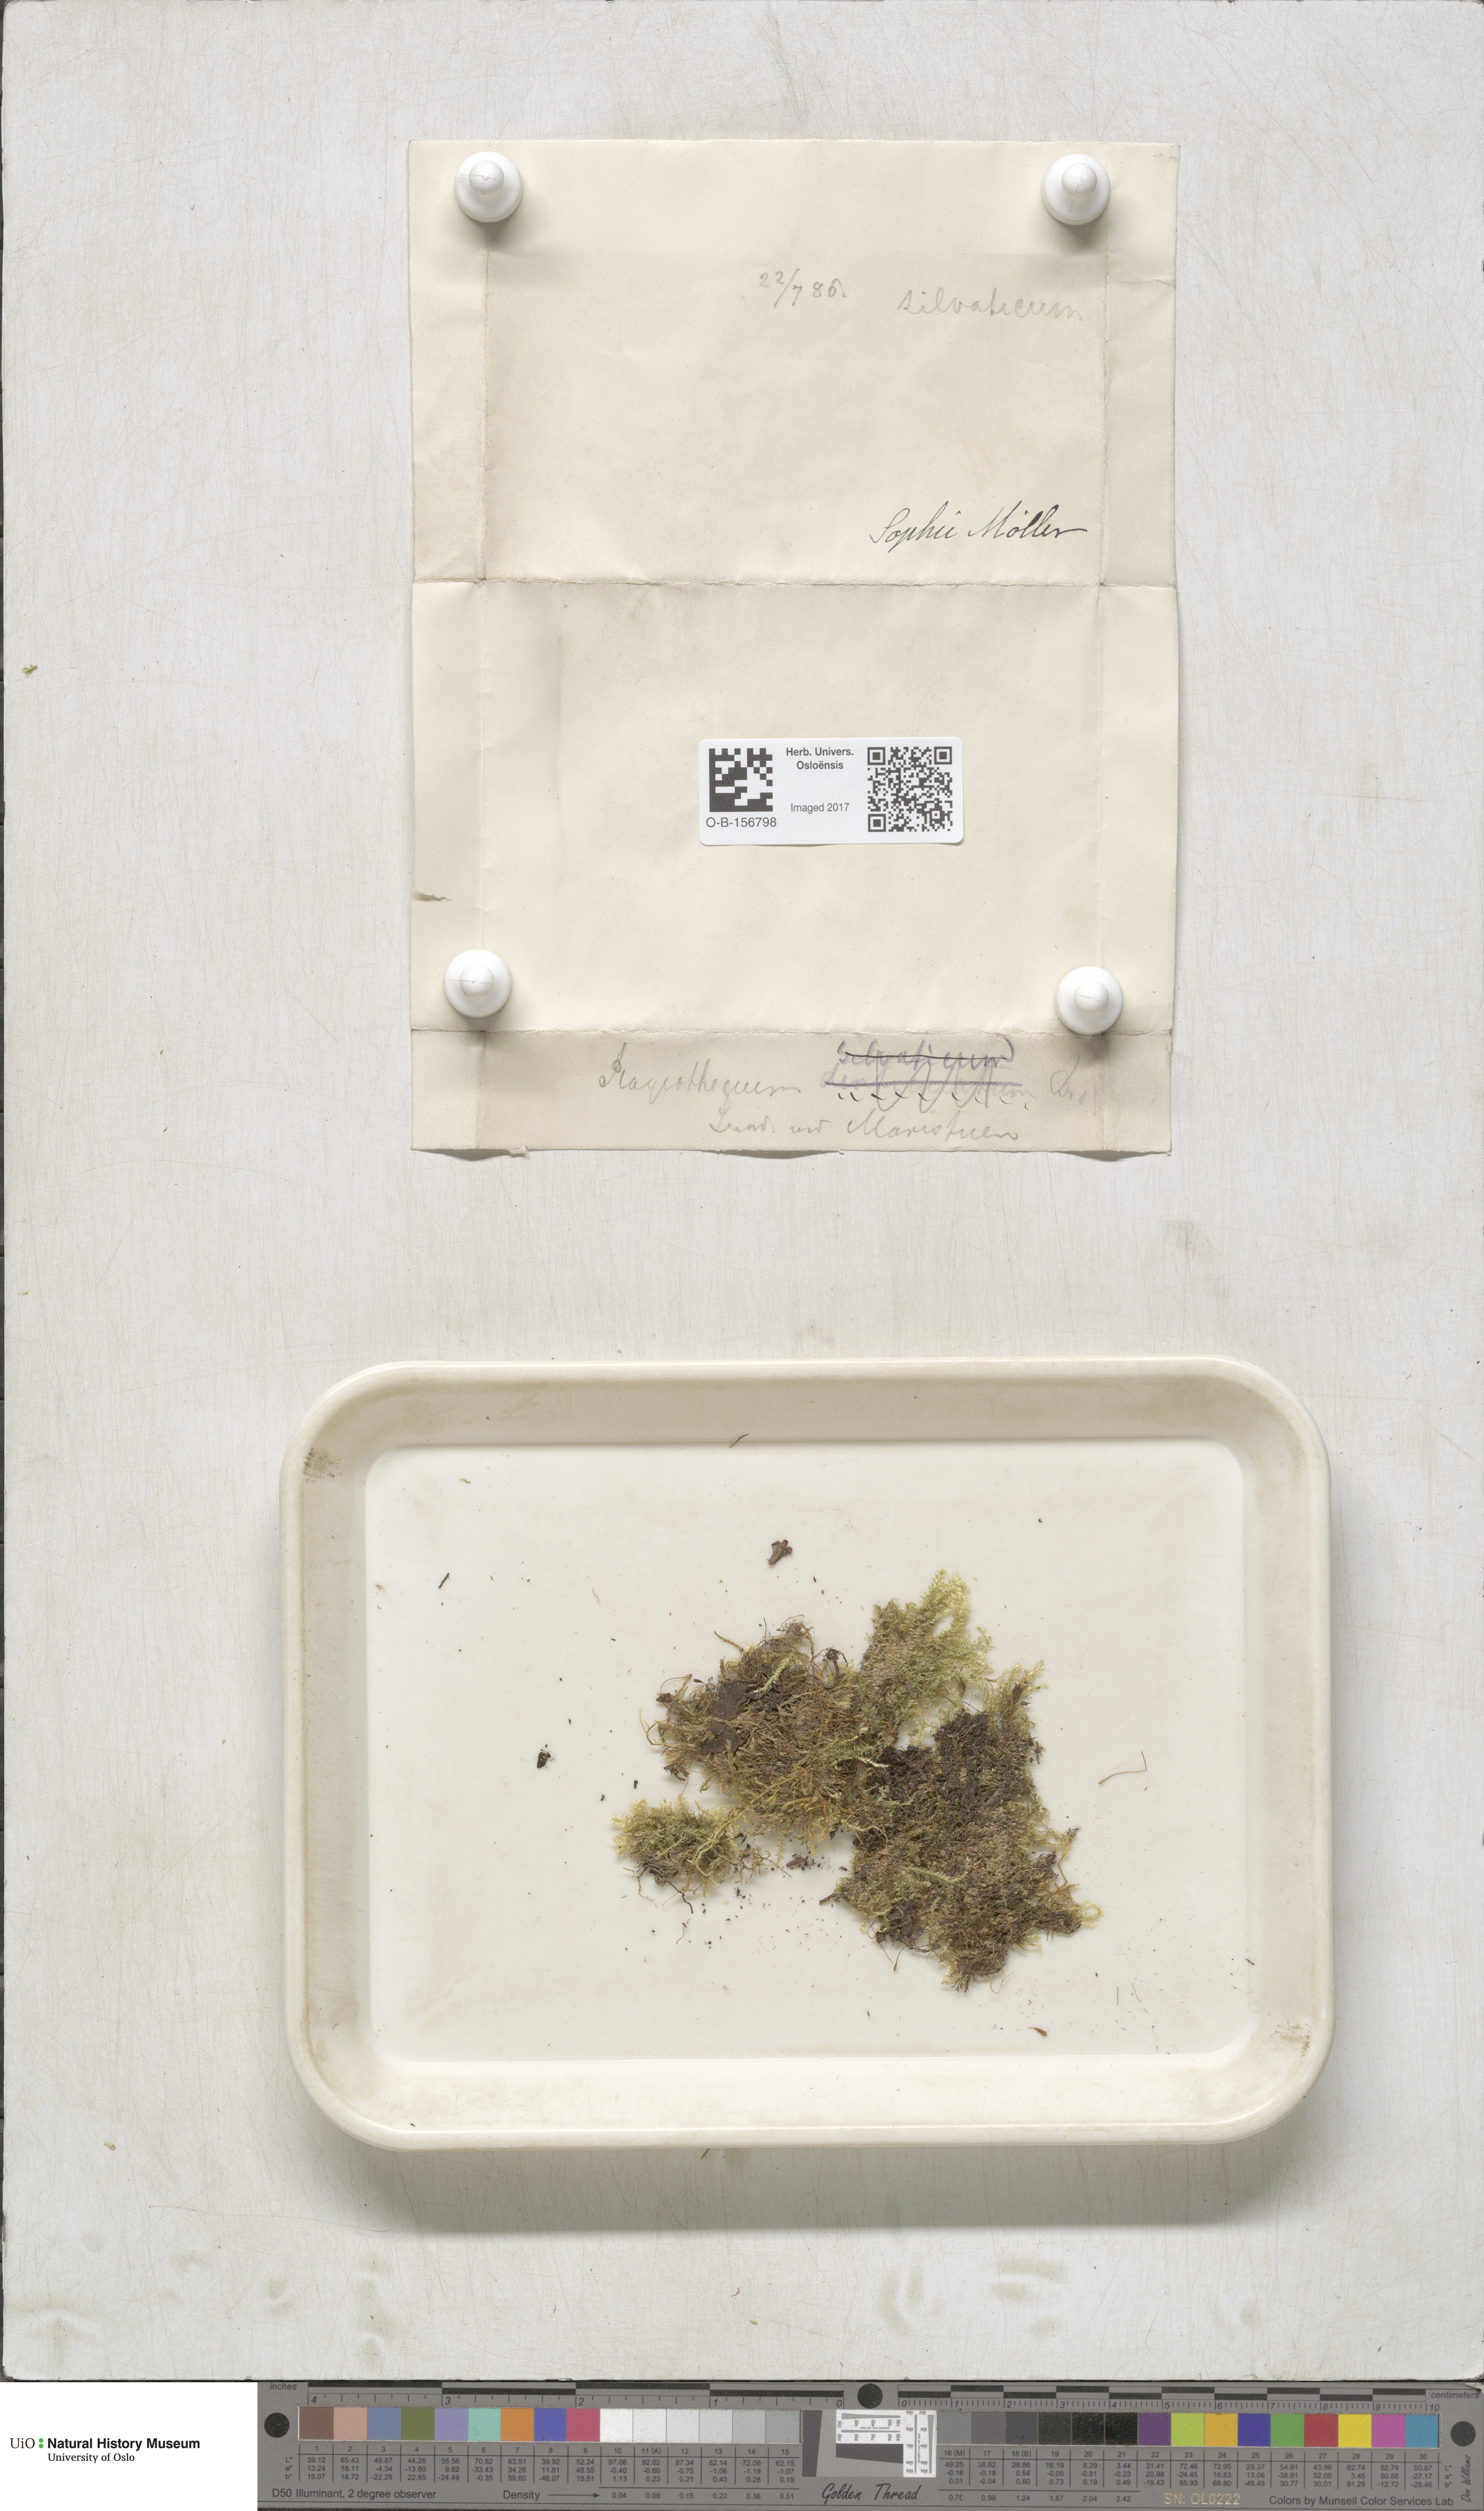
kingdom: Plantae
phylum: Bryophyta
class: Bryopsida
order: Hypnales
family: Plagiotheciaceae
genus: Plagiothecium
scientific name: Plagiothecium
